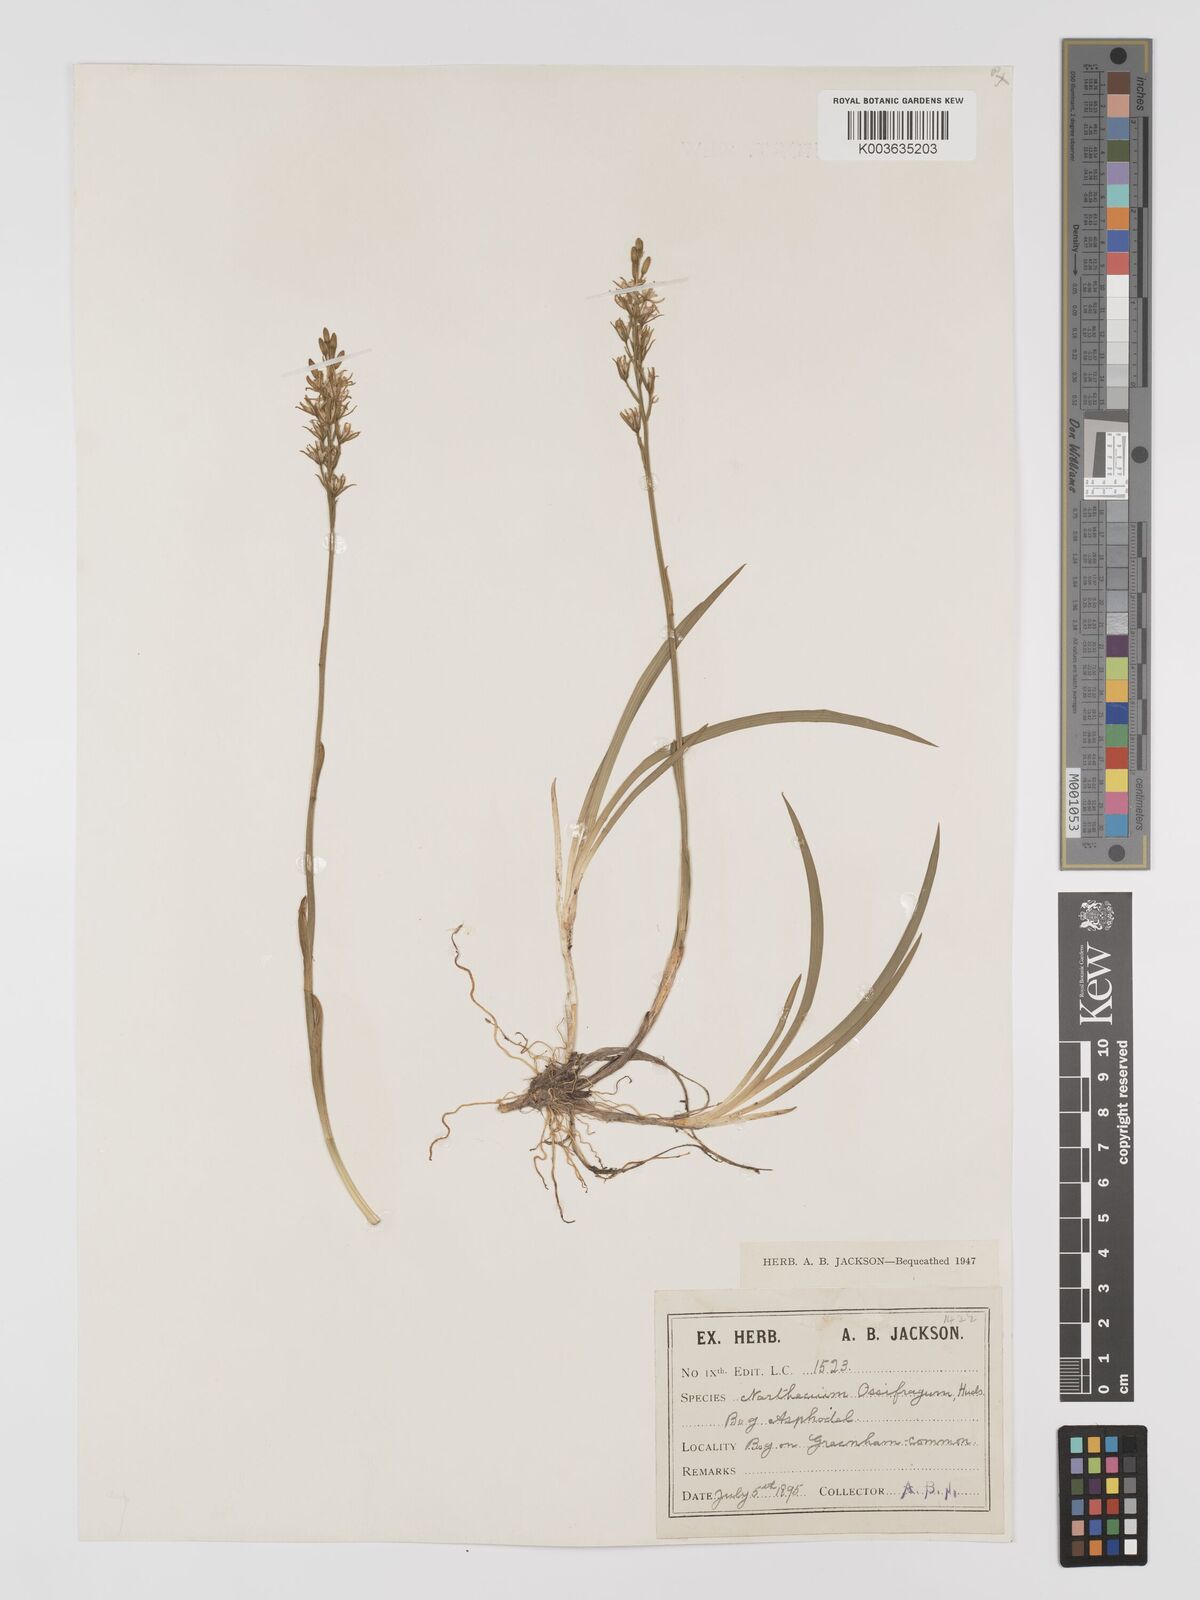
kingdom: Plantae
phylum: Tracheophyta
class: Liliopsida
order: Dioscoreales
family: Nartheciaceae
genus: Narthecium
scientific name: Narthecium
